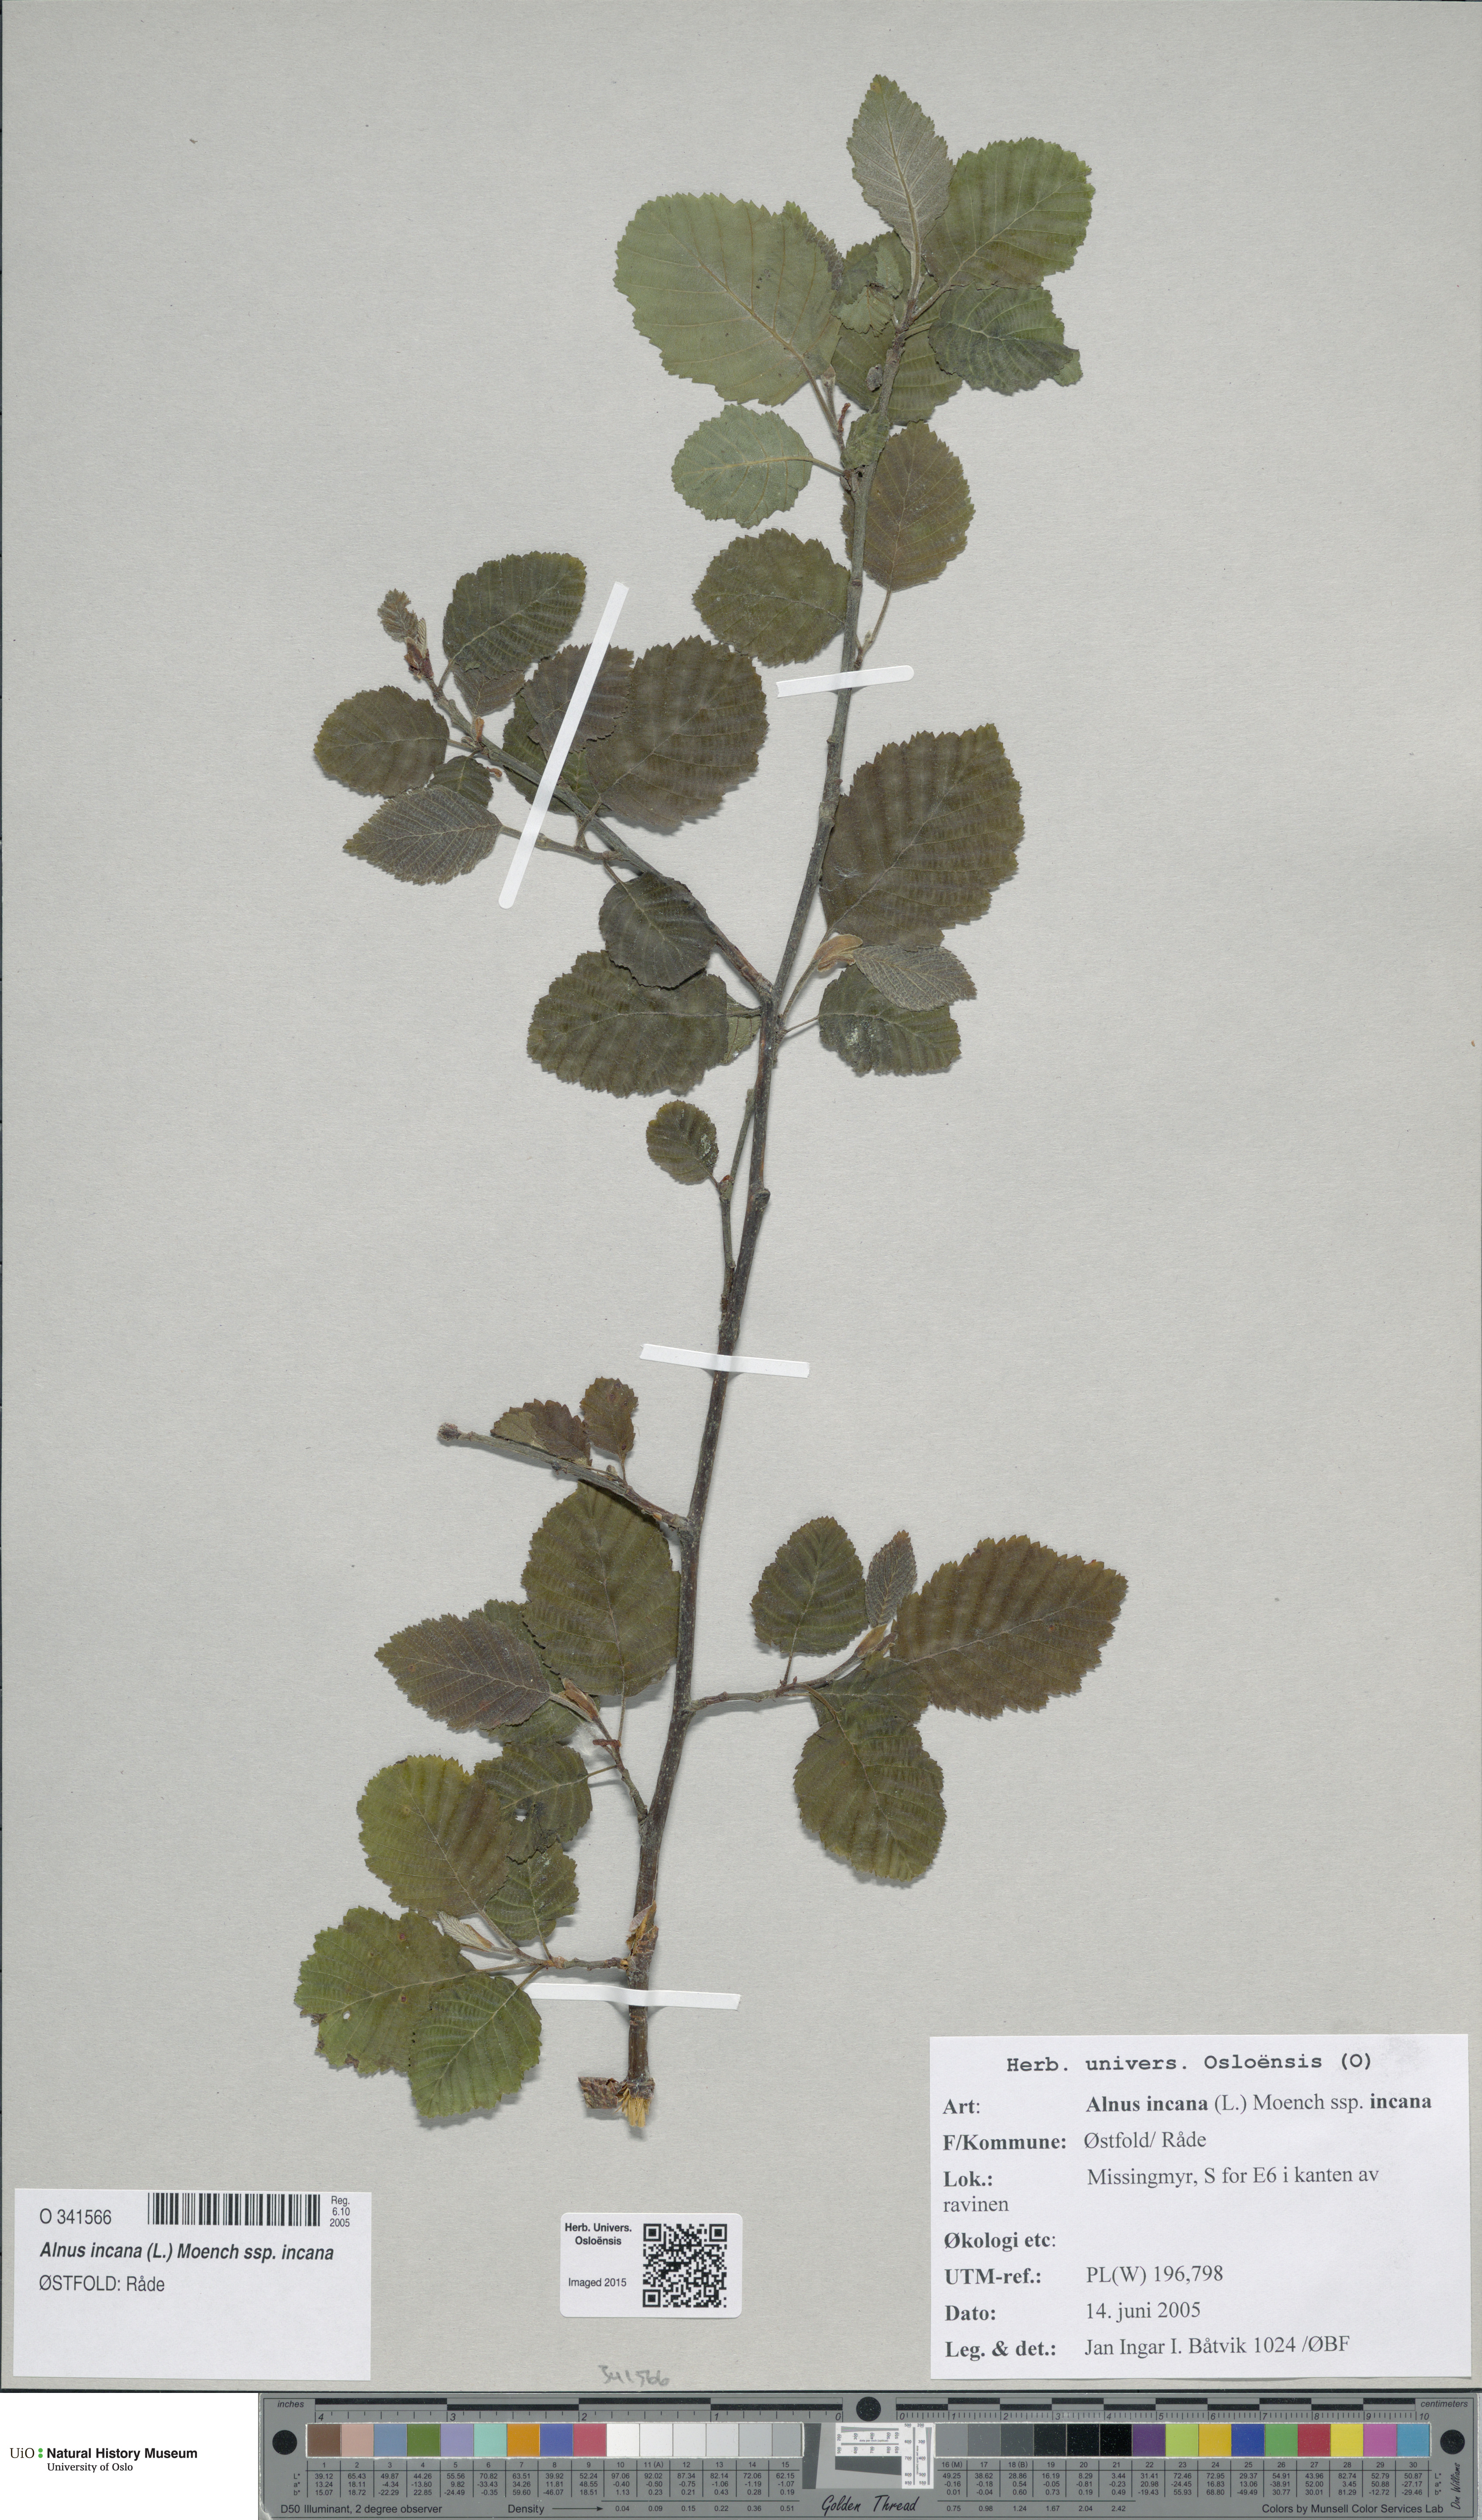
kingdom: Plantae
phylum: Tracheophyta
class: Magnoliopsida
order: Fagales
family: Betulaceae
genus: Alnus
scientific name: Alnus incana
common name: Grey alder
